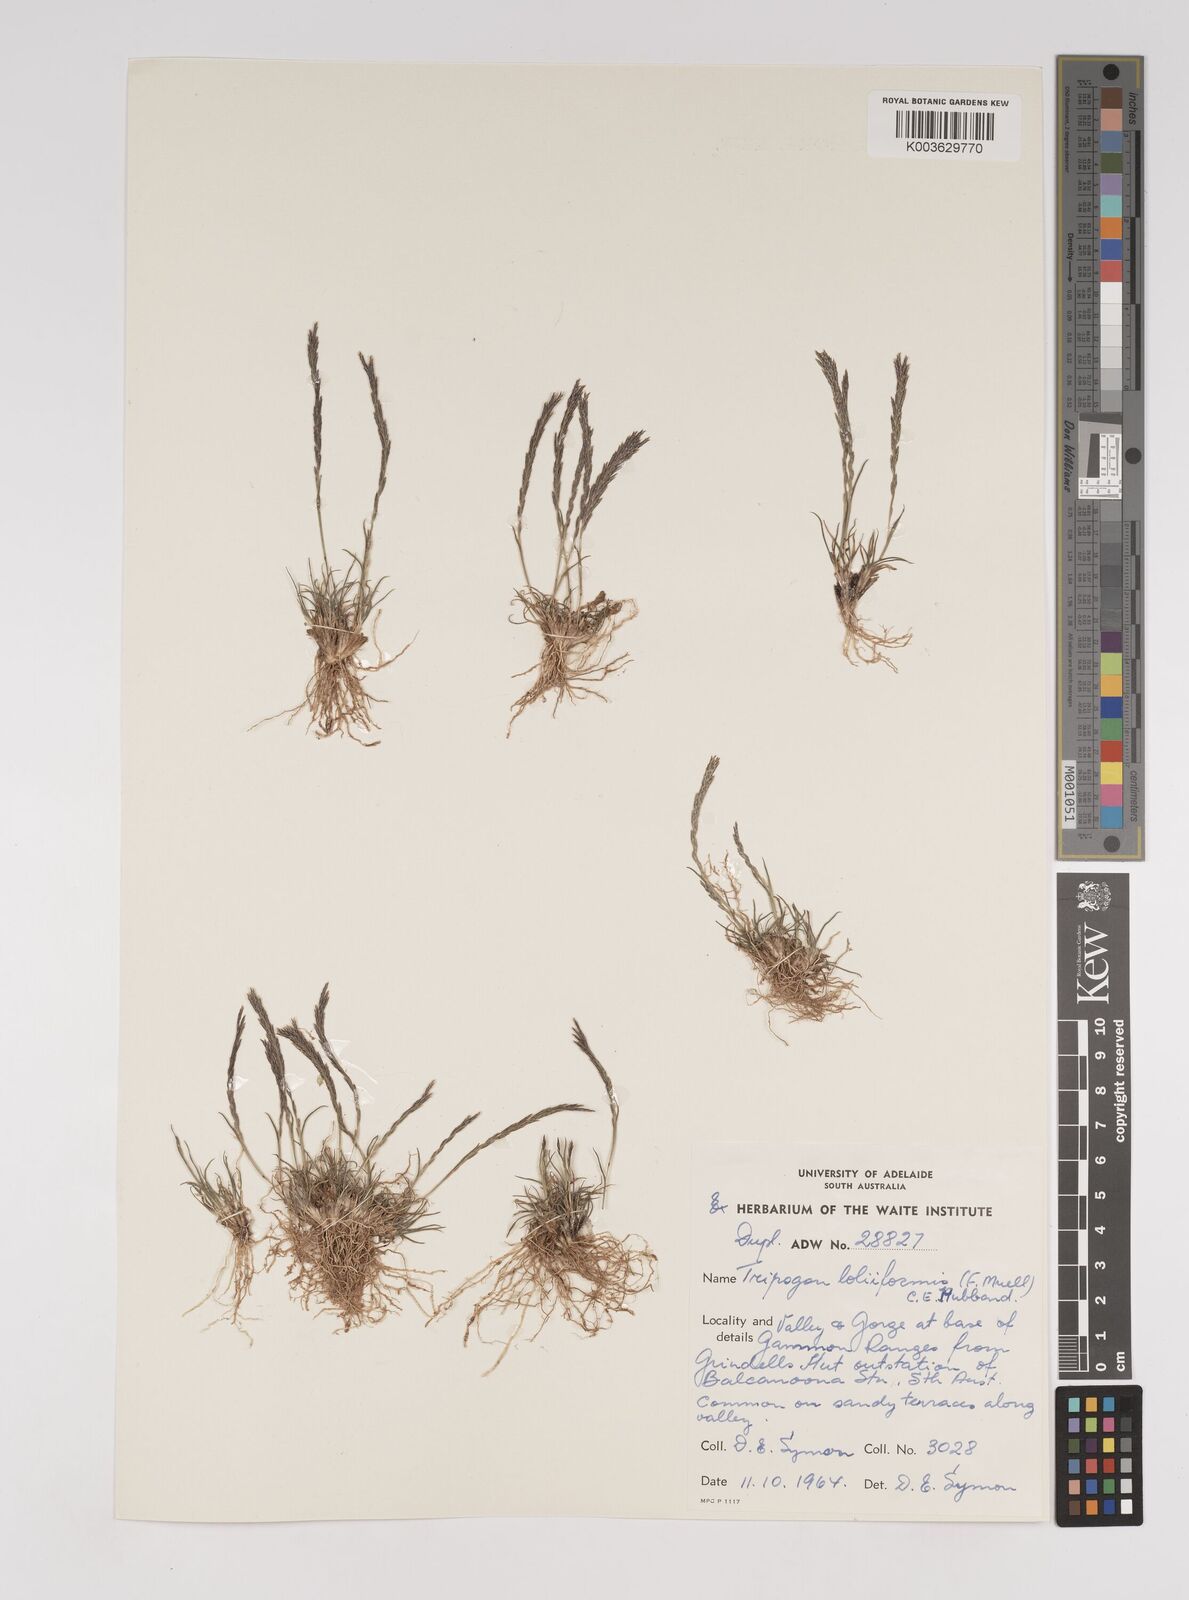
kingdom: Plantae
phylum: Tracheophyta
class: Liliopsida
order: Poales
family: Poaceae
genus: Tripogonella
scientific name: Tripogonella loliiformis
